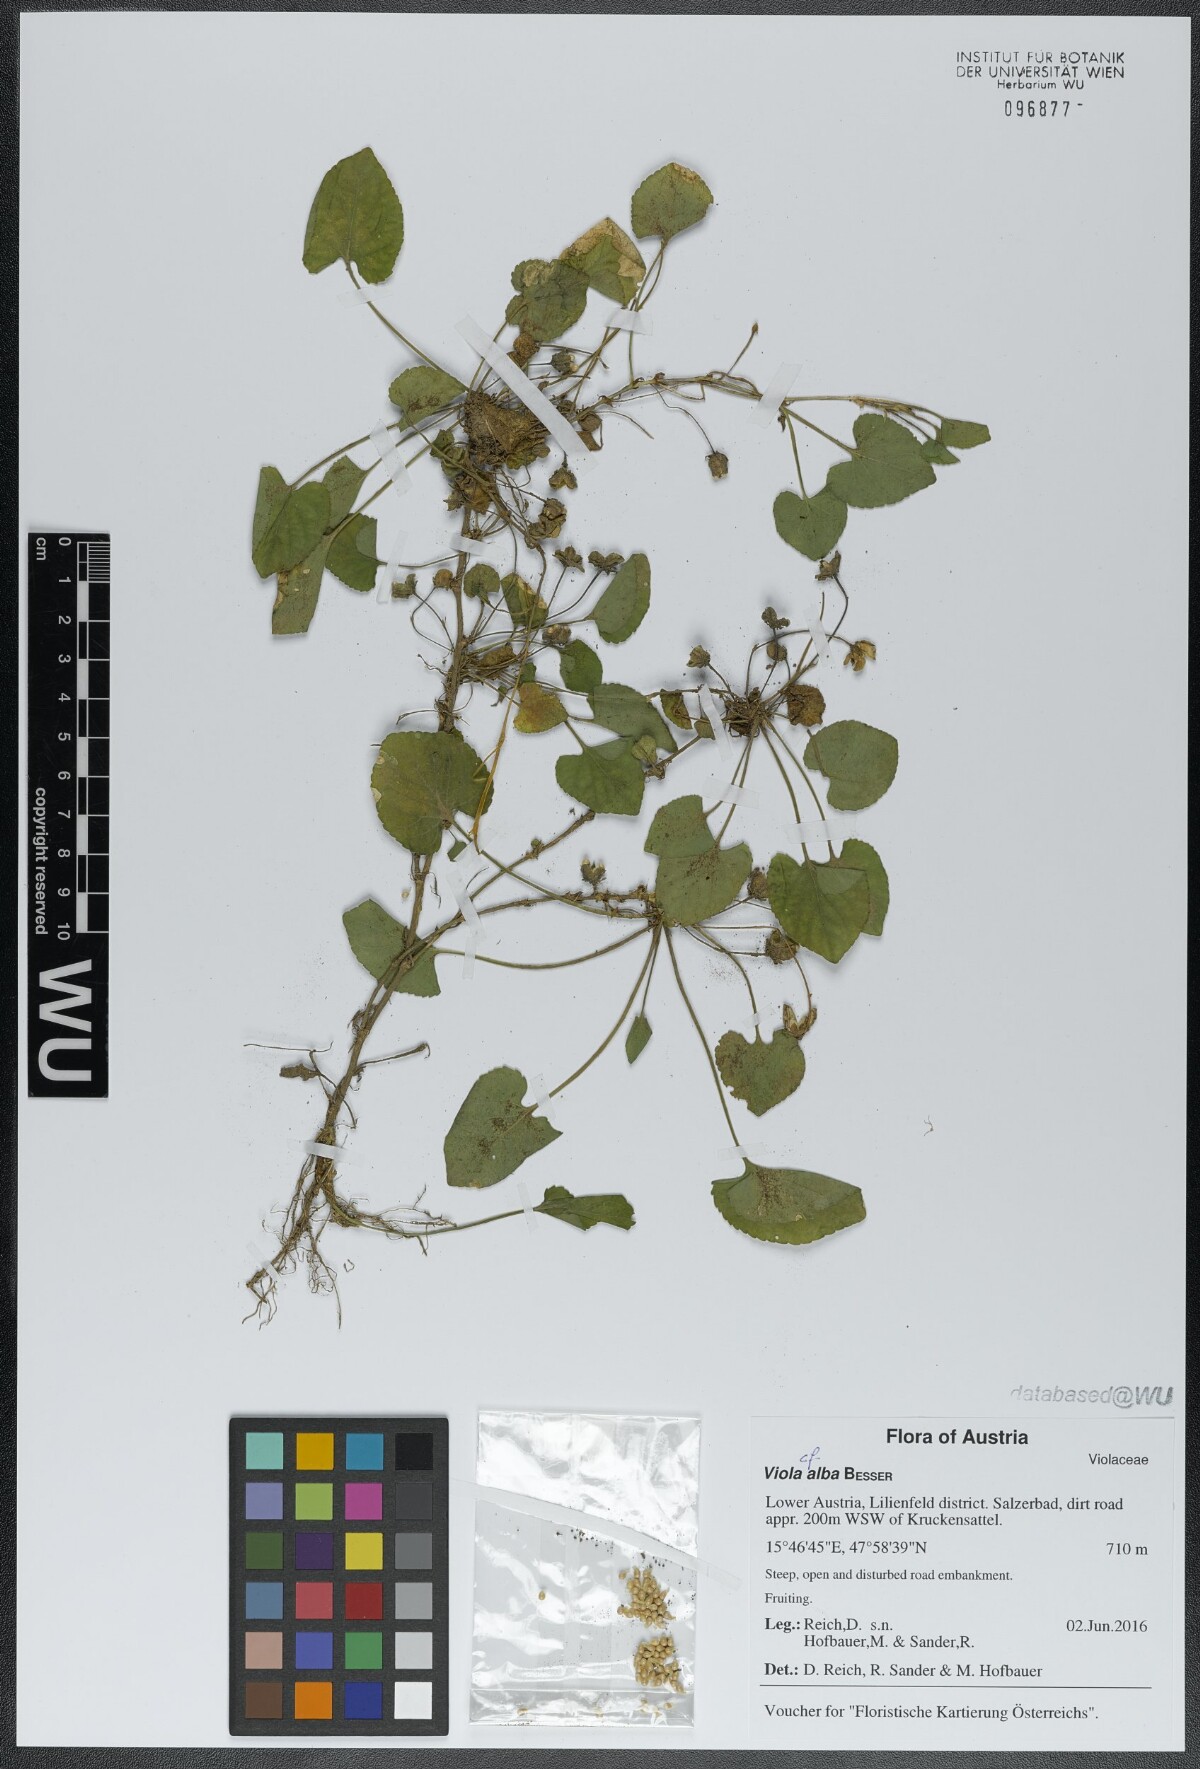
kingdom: Plantae
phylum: Tracheophyta
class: Magnoliopsida
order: Malpighiales
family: Violaceae
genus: Viola
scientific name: Viola alba
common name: White violet
